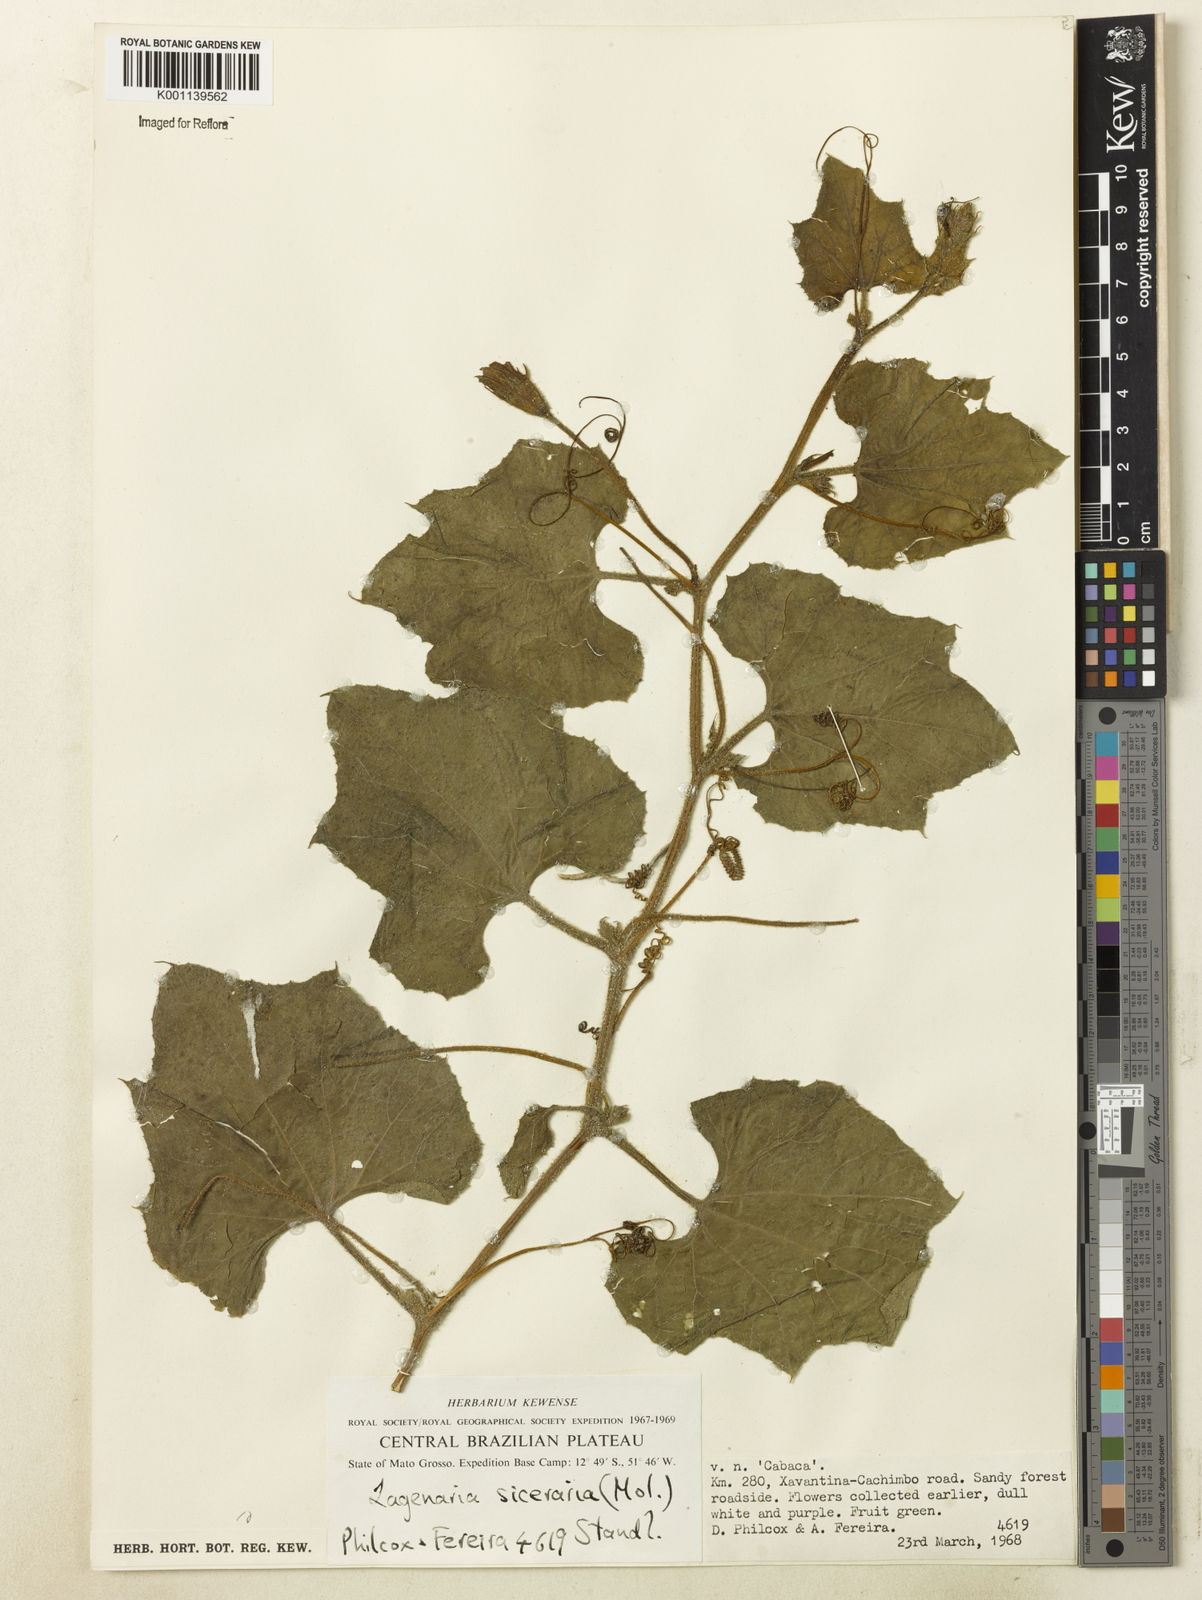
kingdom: Plantae
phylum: Tracheophyta
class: Magnoliopsida
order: Cucurbitales
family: Cucurbitaceae
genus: Lagenaria
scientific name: Lagenaria siceraria
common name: Bottle gourd
